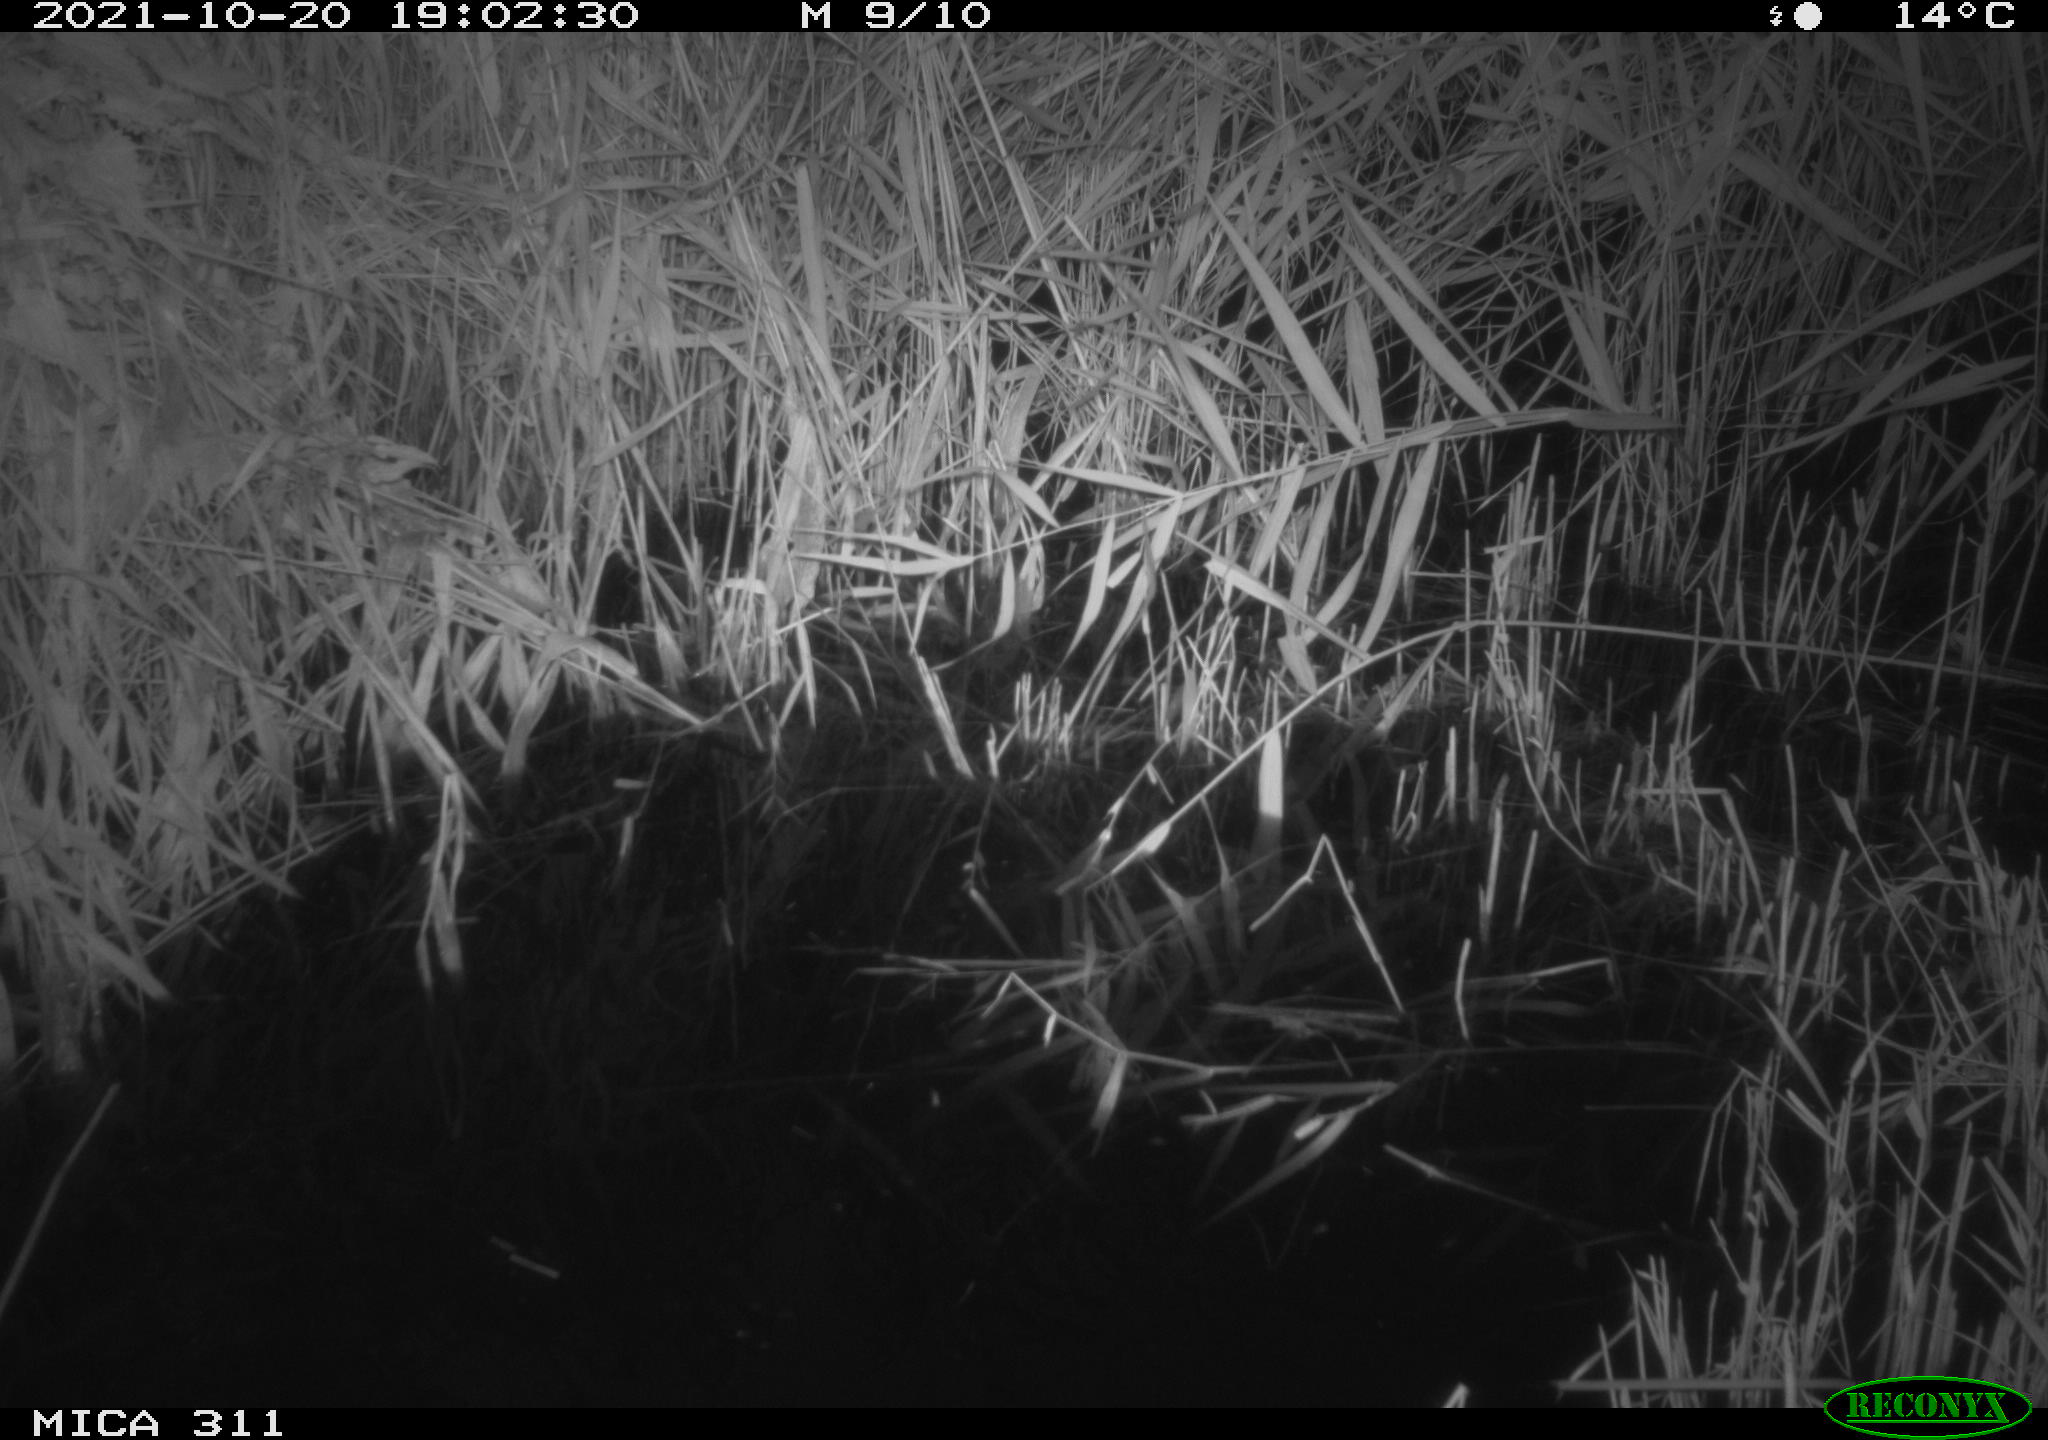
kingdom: Animalia
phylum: Chordata
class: Mammalia
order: Rodentia
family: Muridae
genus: Rattus
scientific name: Rattus norvegicus
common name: Brown rat
